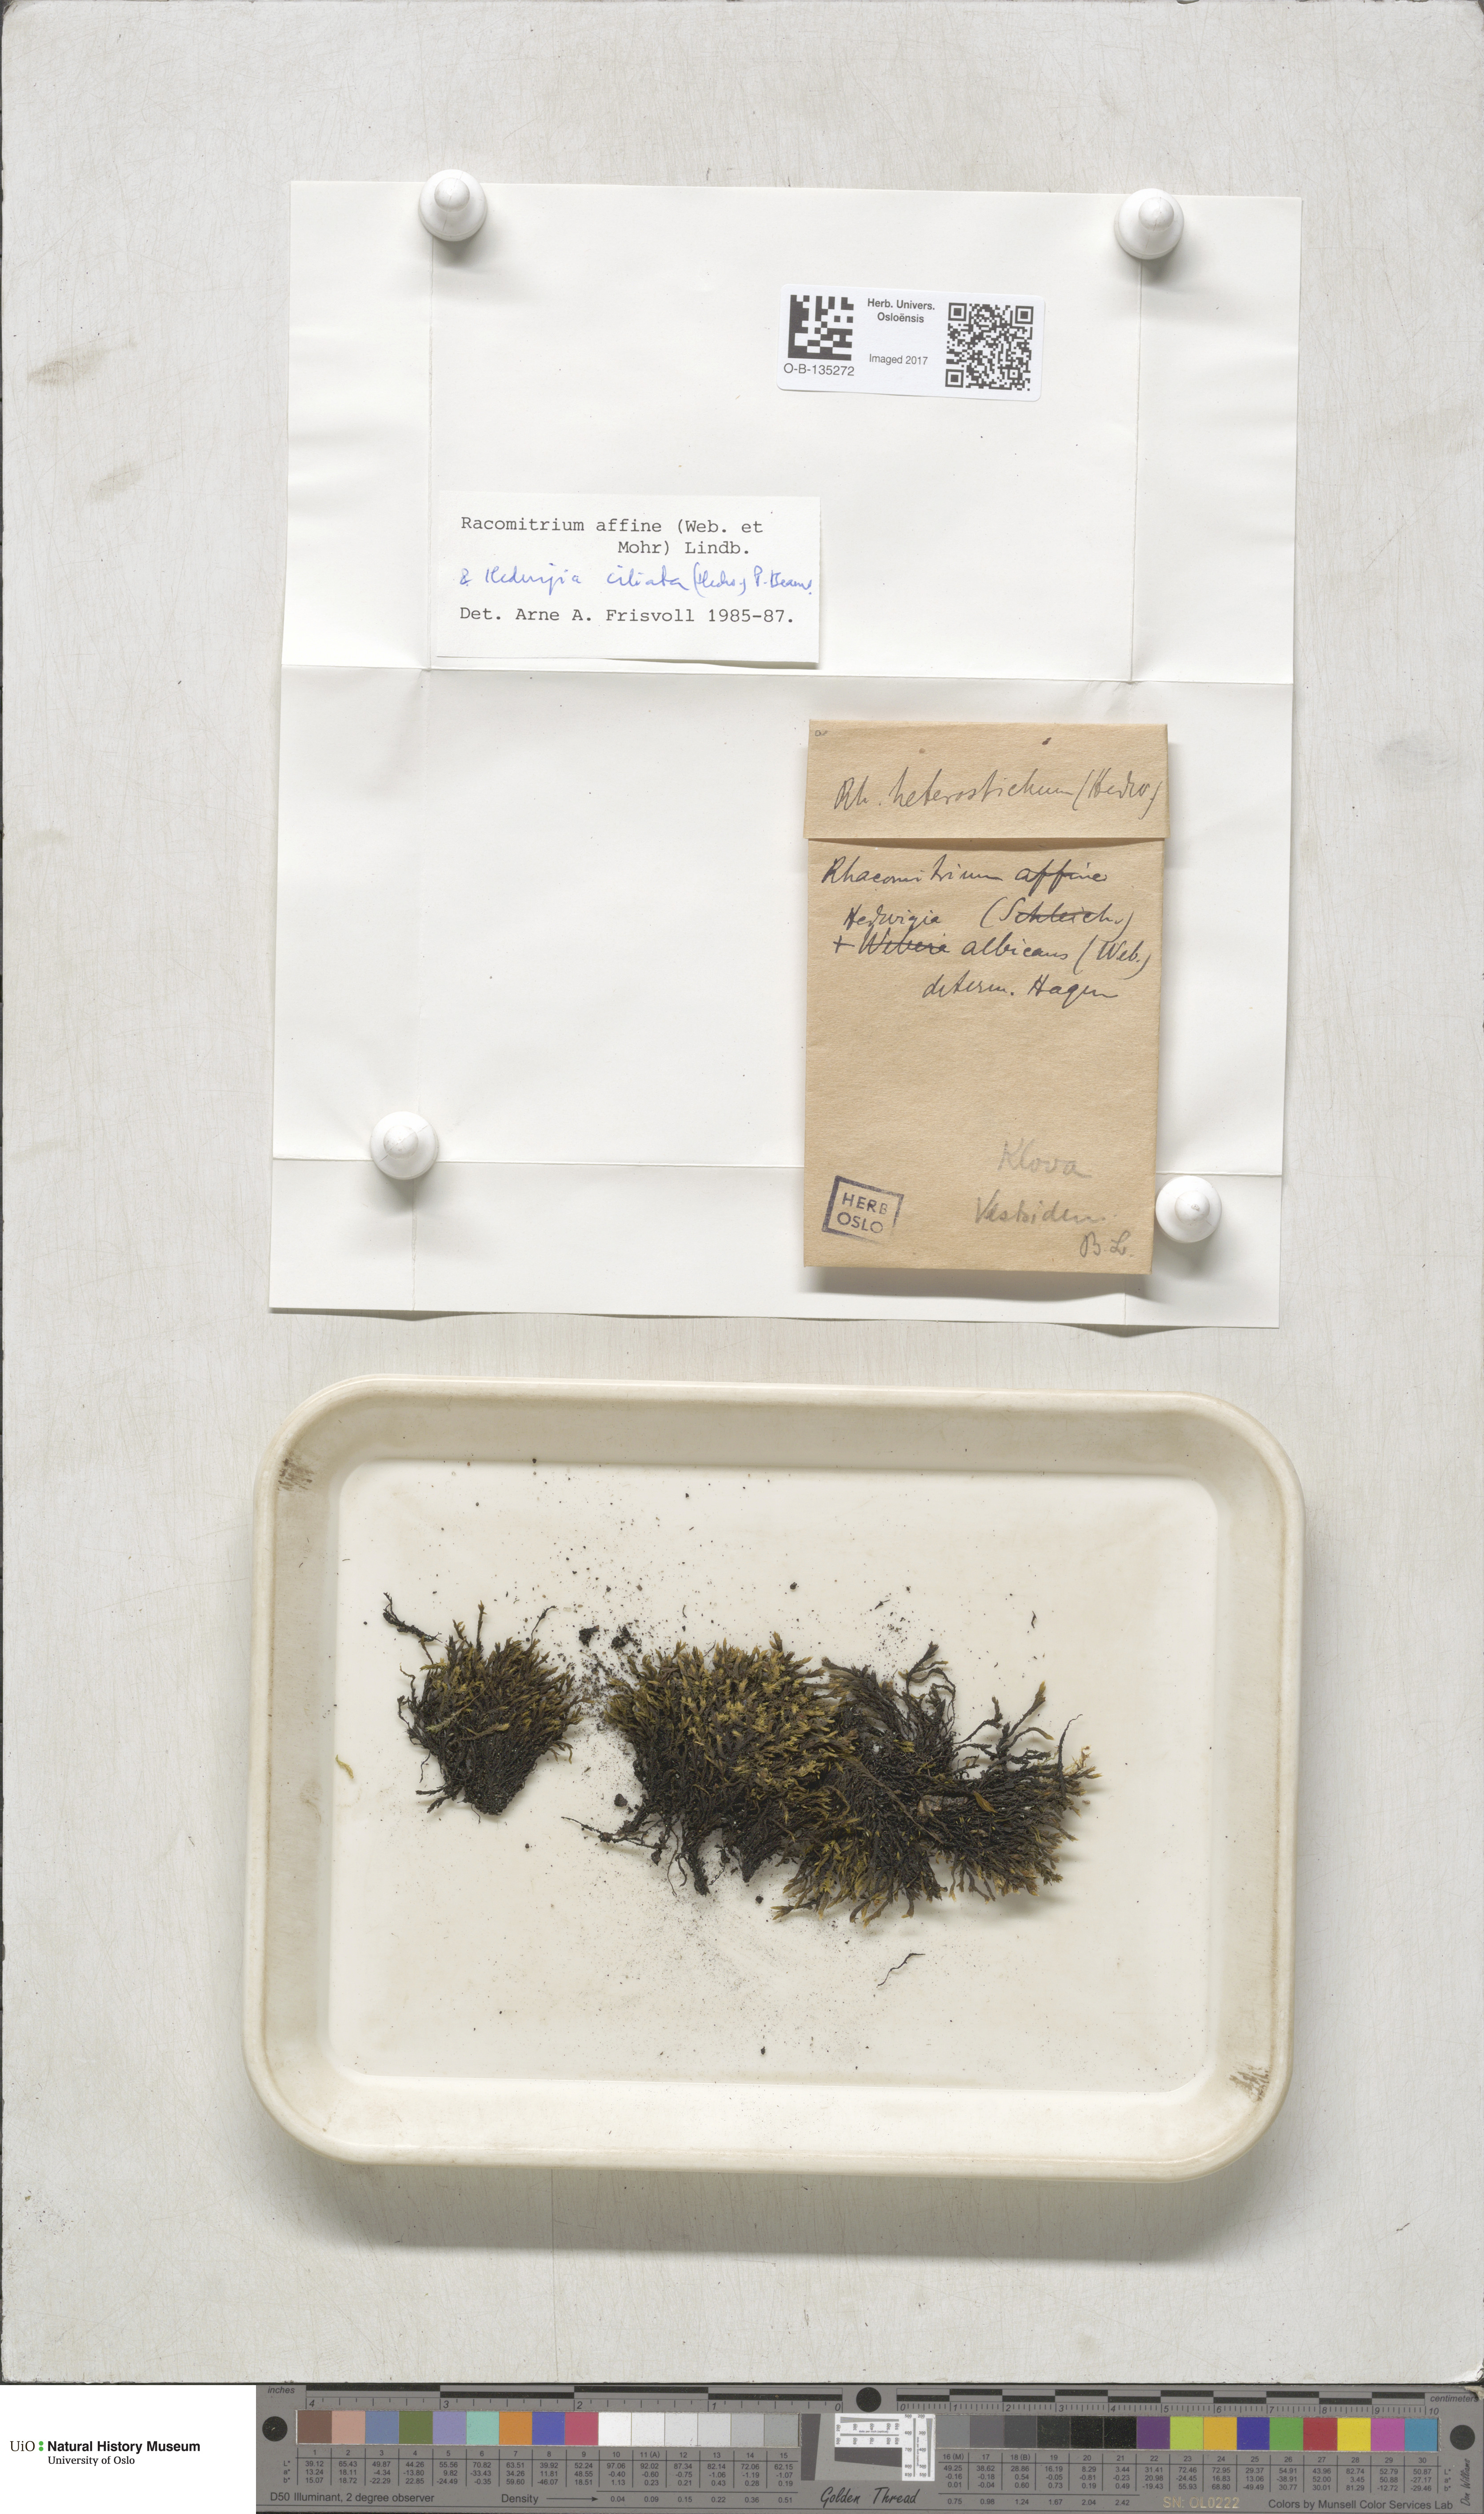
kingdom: Plantae
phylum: Bryophyta
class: Bryopsida
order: Grimmiales
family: Grimmiaceae
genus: Bucklandiella
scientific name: Bucklandiella affinis
